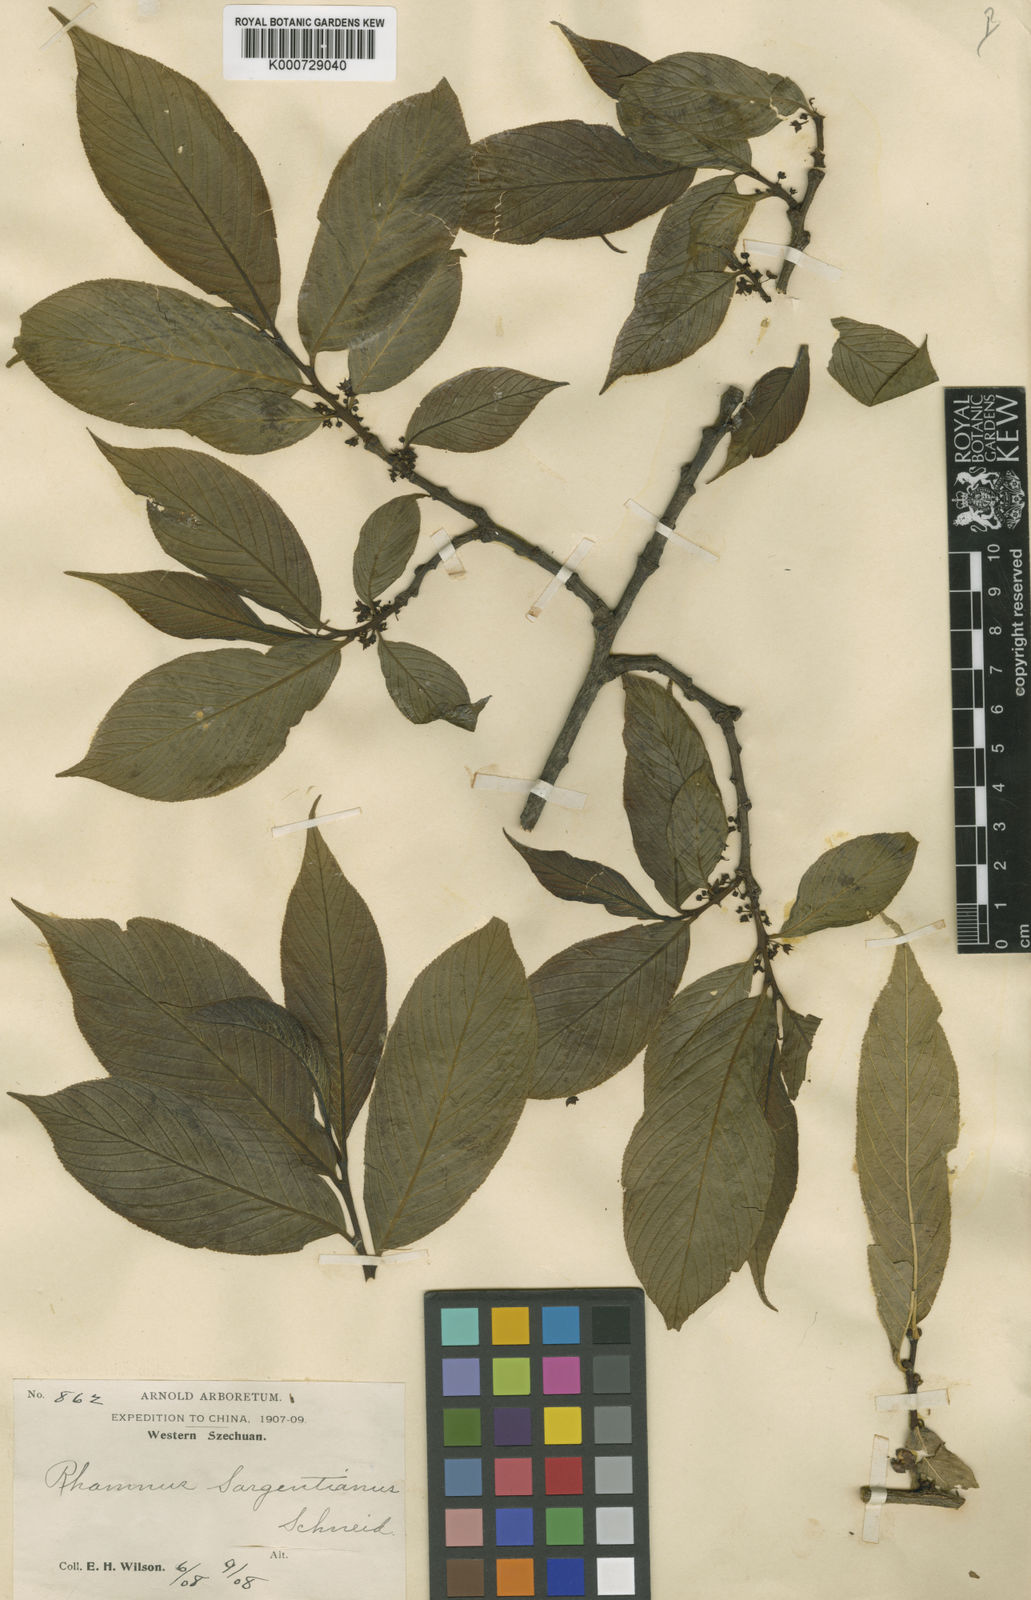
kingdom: Plantae
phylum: Tracheophyta
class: Magnoliopsida
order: Rosales
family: Rhamnaceae
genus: Rhamnus
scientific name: Rhamnus sargentiana
